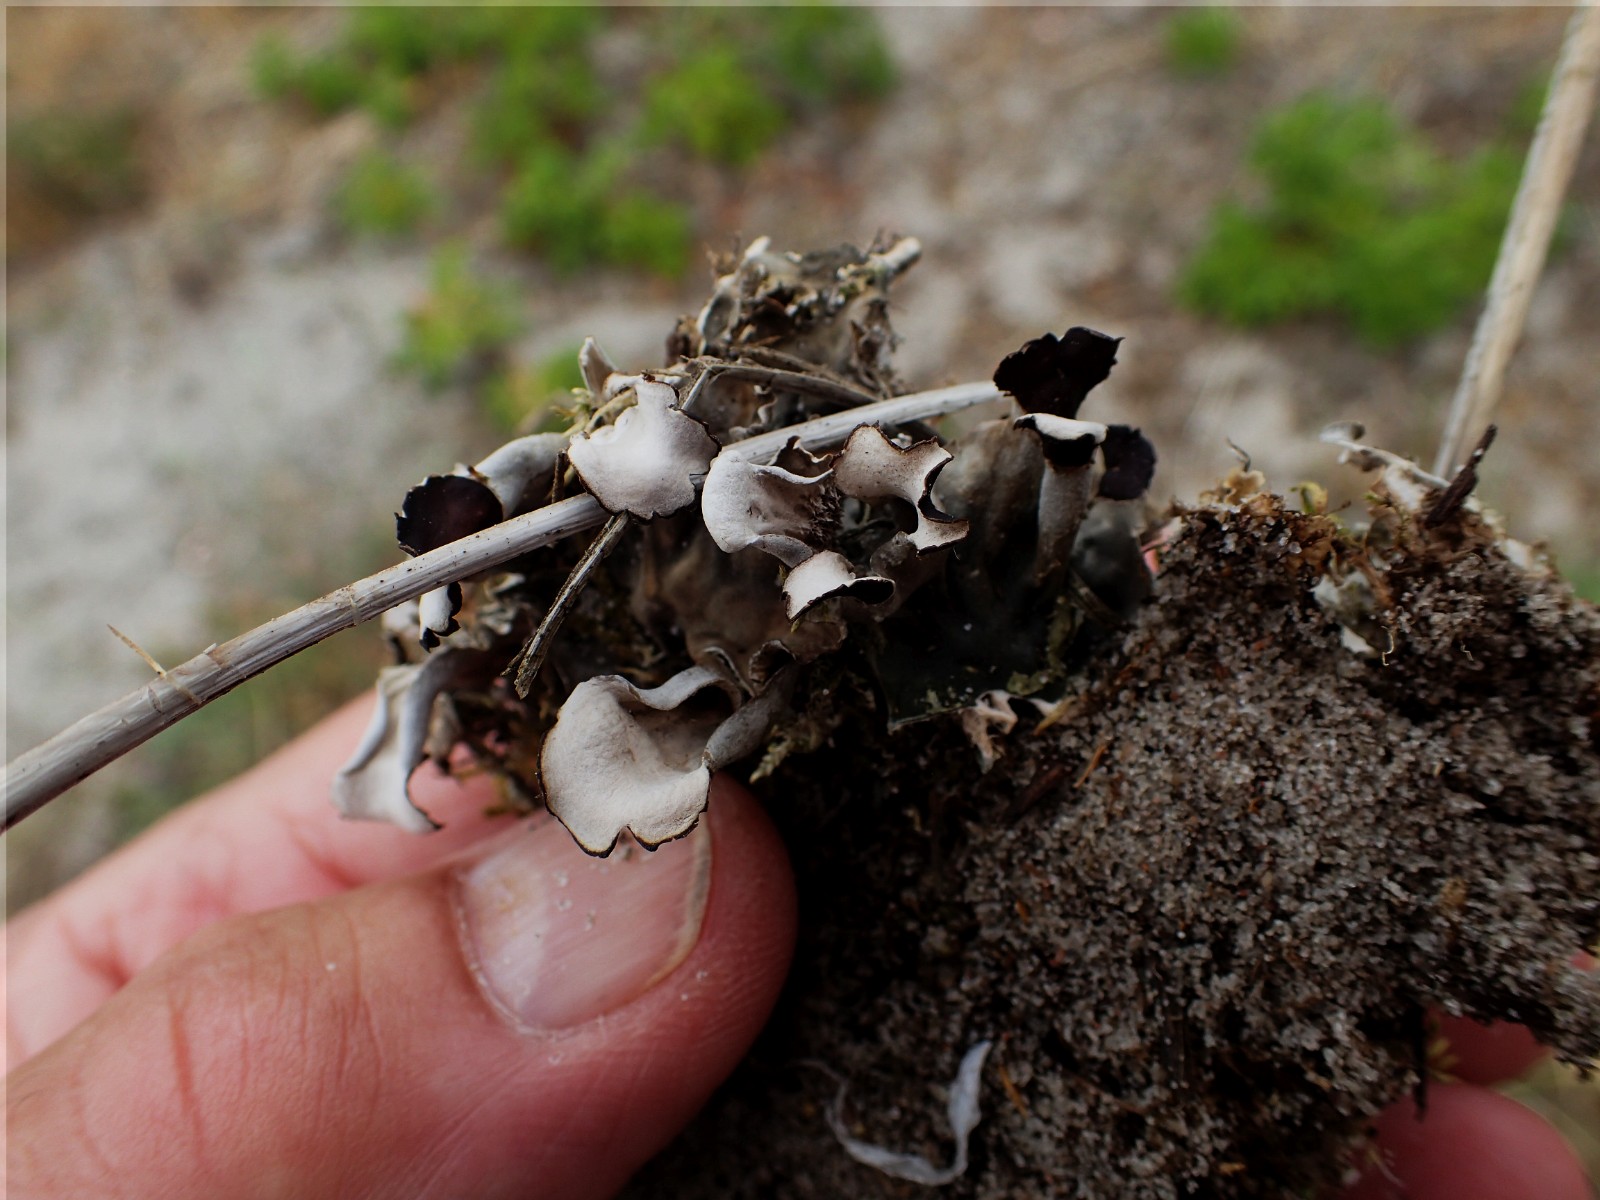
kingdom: Fungi
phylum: Ascomycota
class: Lecanoromycetes
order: Peltigerales
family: Peltigeraceae
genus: Peltigera
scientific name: Peltigera didactyla
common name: liden skjoldlav
